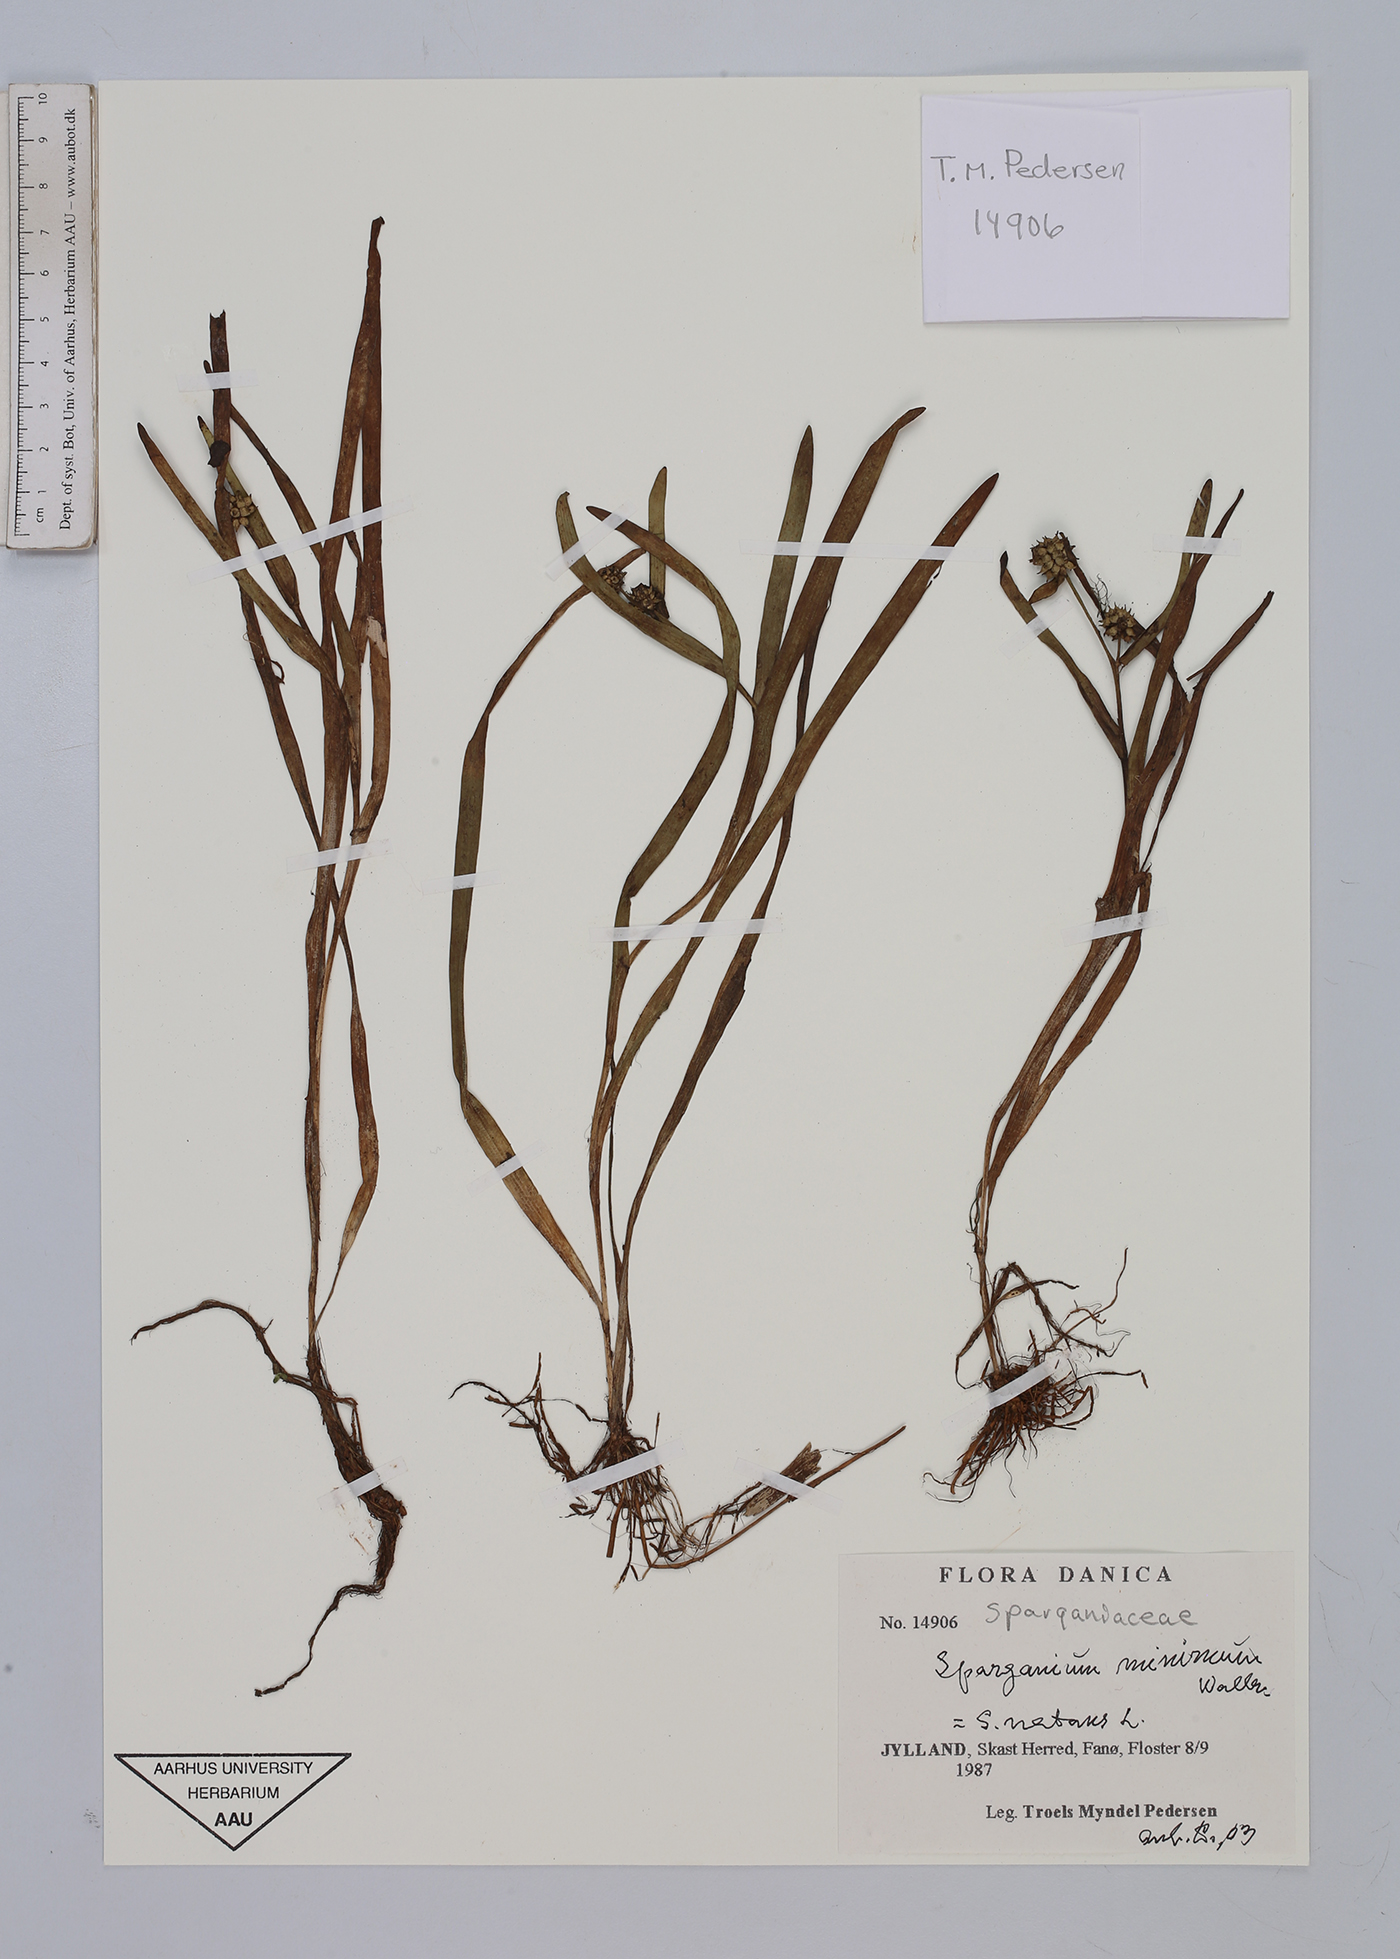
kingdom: Plantae
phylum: Tracheophyta
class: Liliopsida
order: Poales
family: Typhaceae
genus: Sparganium
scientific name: Sparganium natans
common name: Least bur-reed
